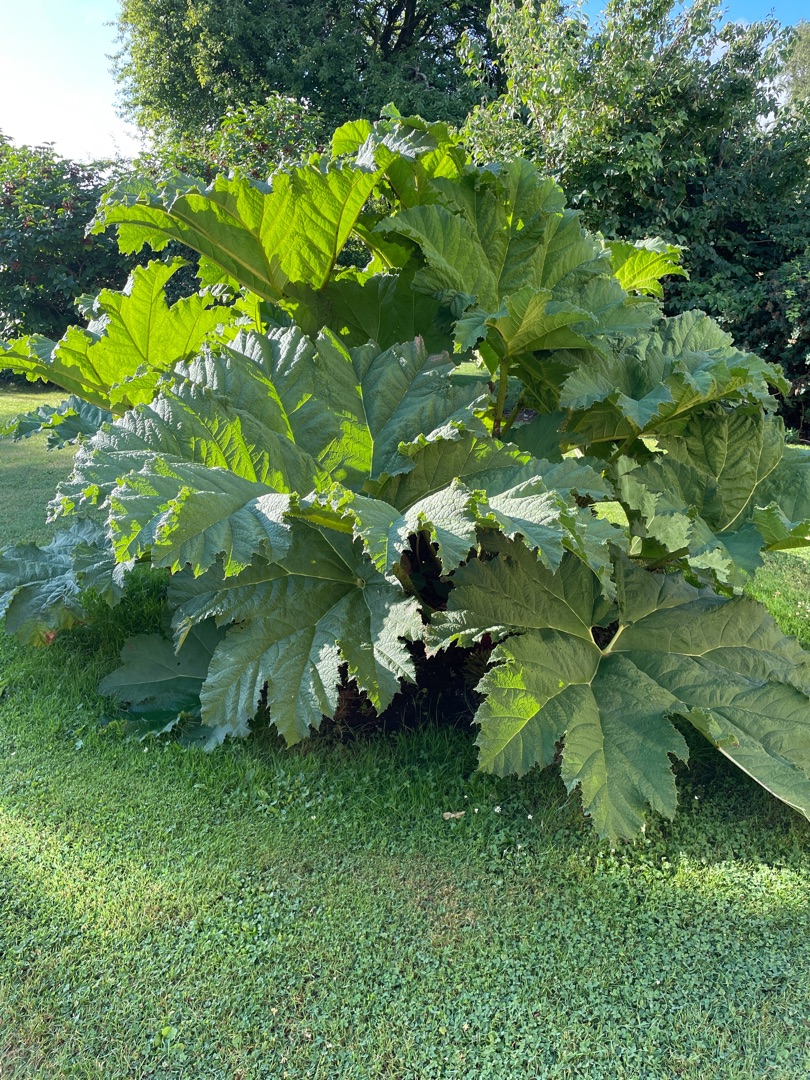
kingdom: Plantae
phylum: Tracheophyta
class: Magnoliopsida
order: Gunnerales
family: Gunneraceae
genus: Gunnera
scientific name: Gunnera tinctoria
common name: Farvegunnera
